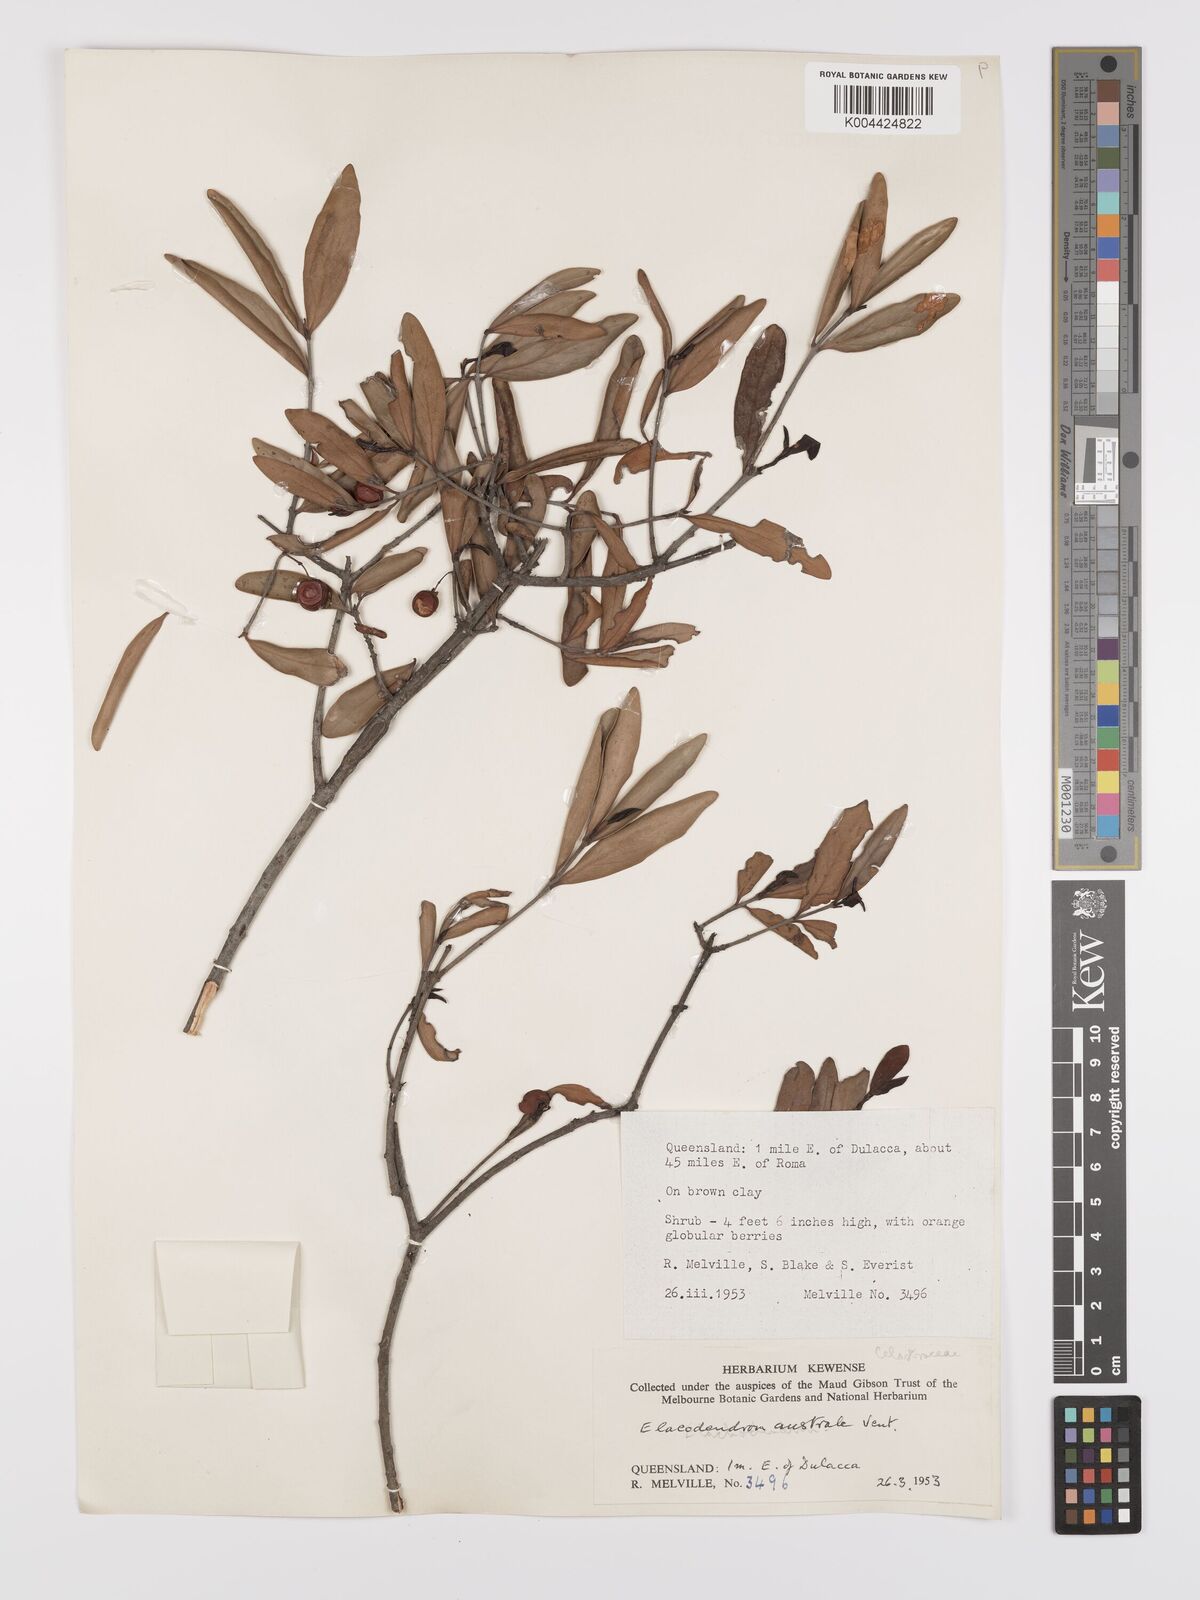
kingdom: Plantae
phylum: Tracheophyta
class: Magnoliopsida
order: Celastrales
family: Celastraceae
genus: Elaeodendron
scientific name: Elaeodendron australe
